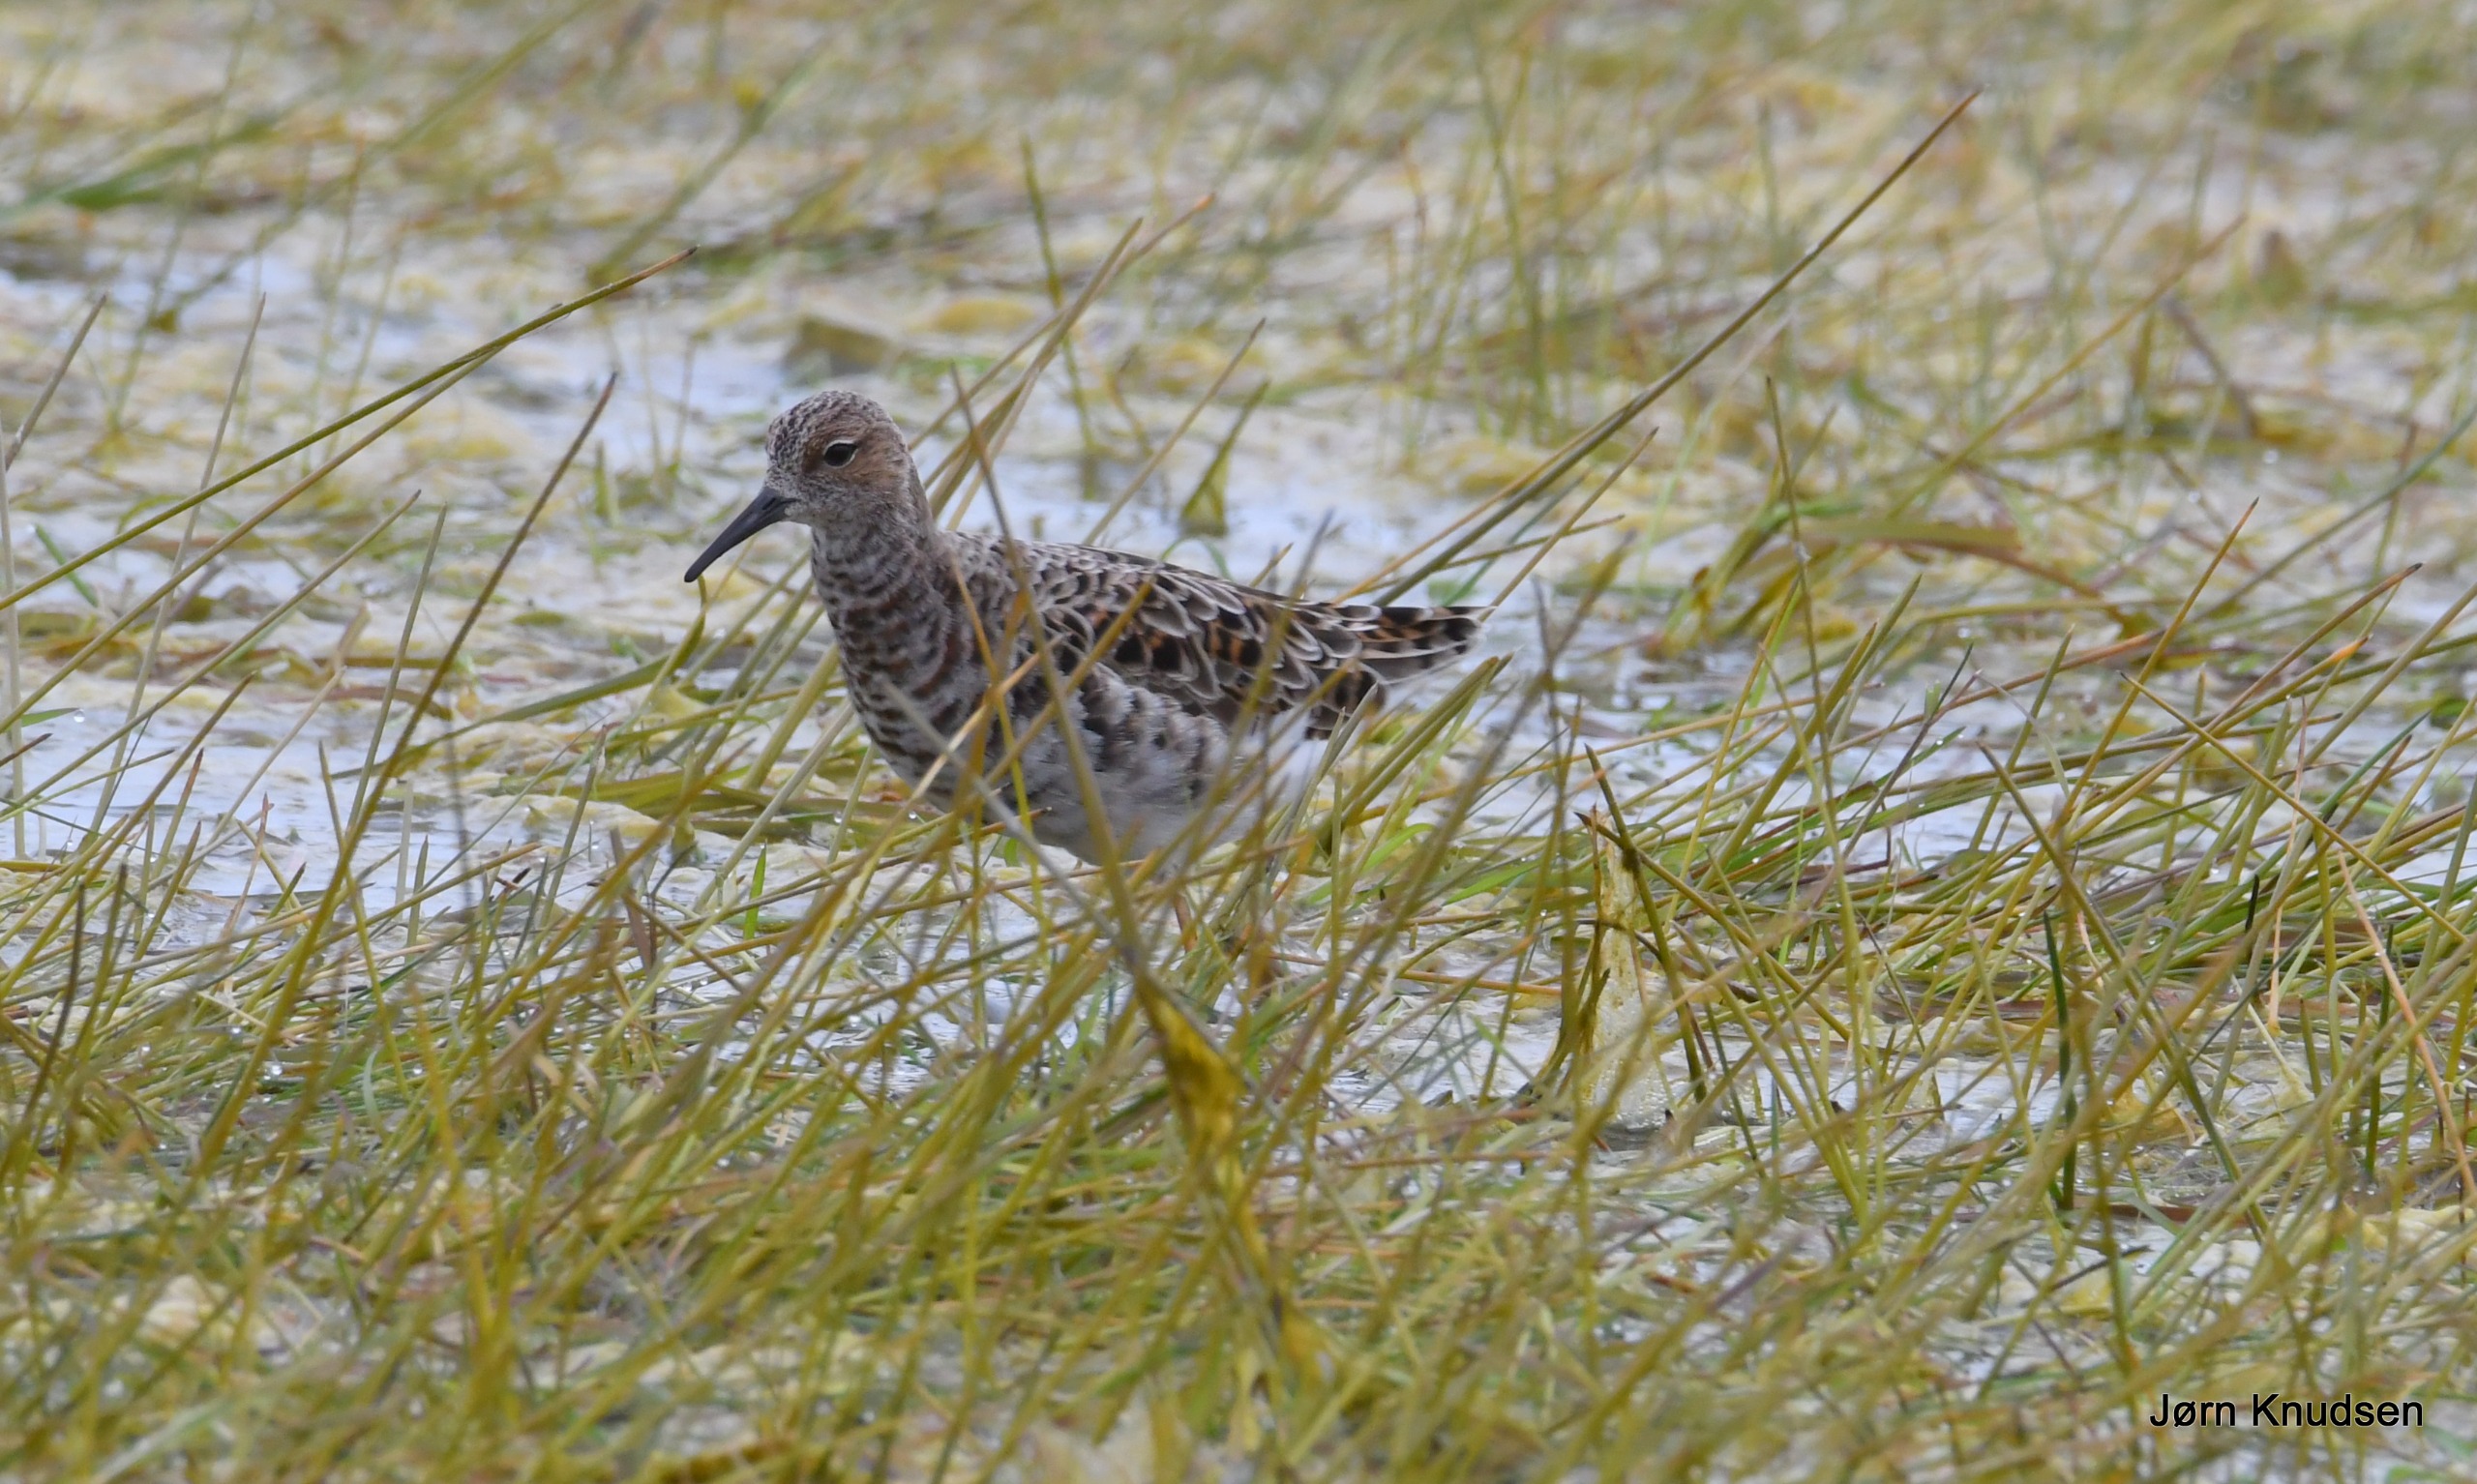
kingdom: Animalia
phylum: Chordata
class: Aves
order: Charadriiformes
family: Scolopacidae
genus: Calidris
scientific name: Calidris pugnax
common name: Brushane
